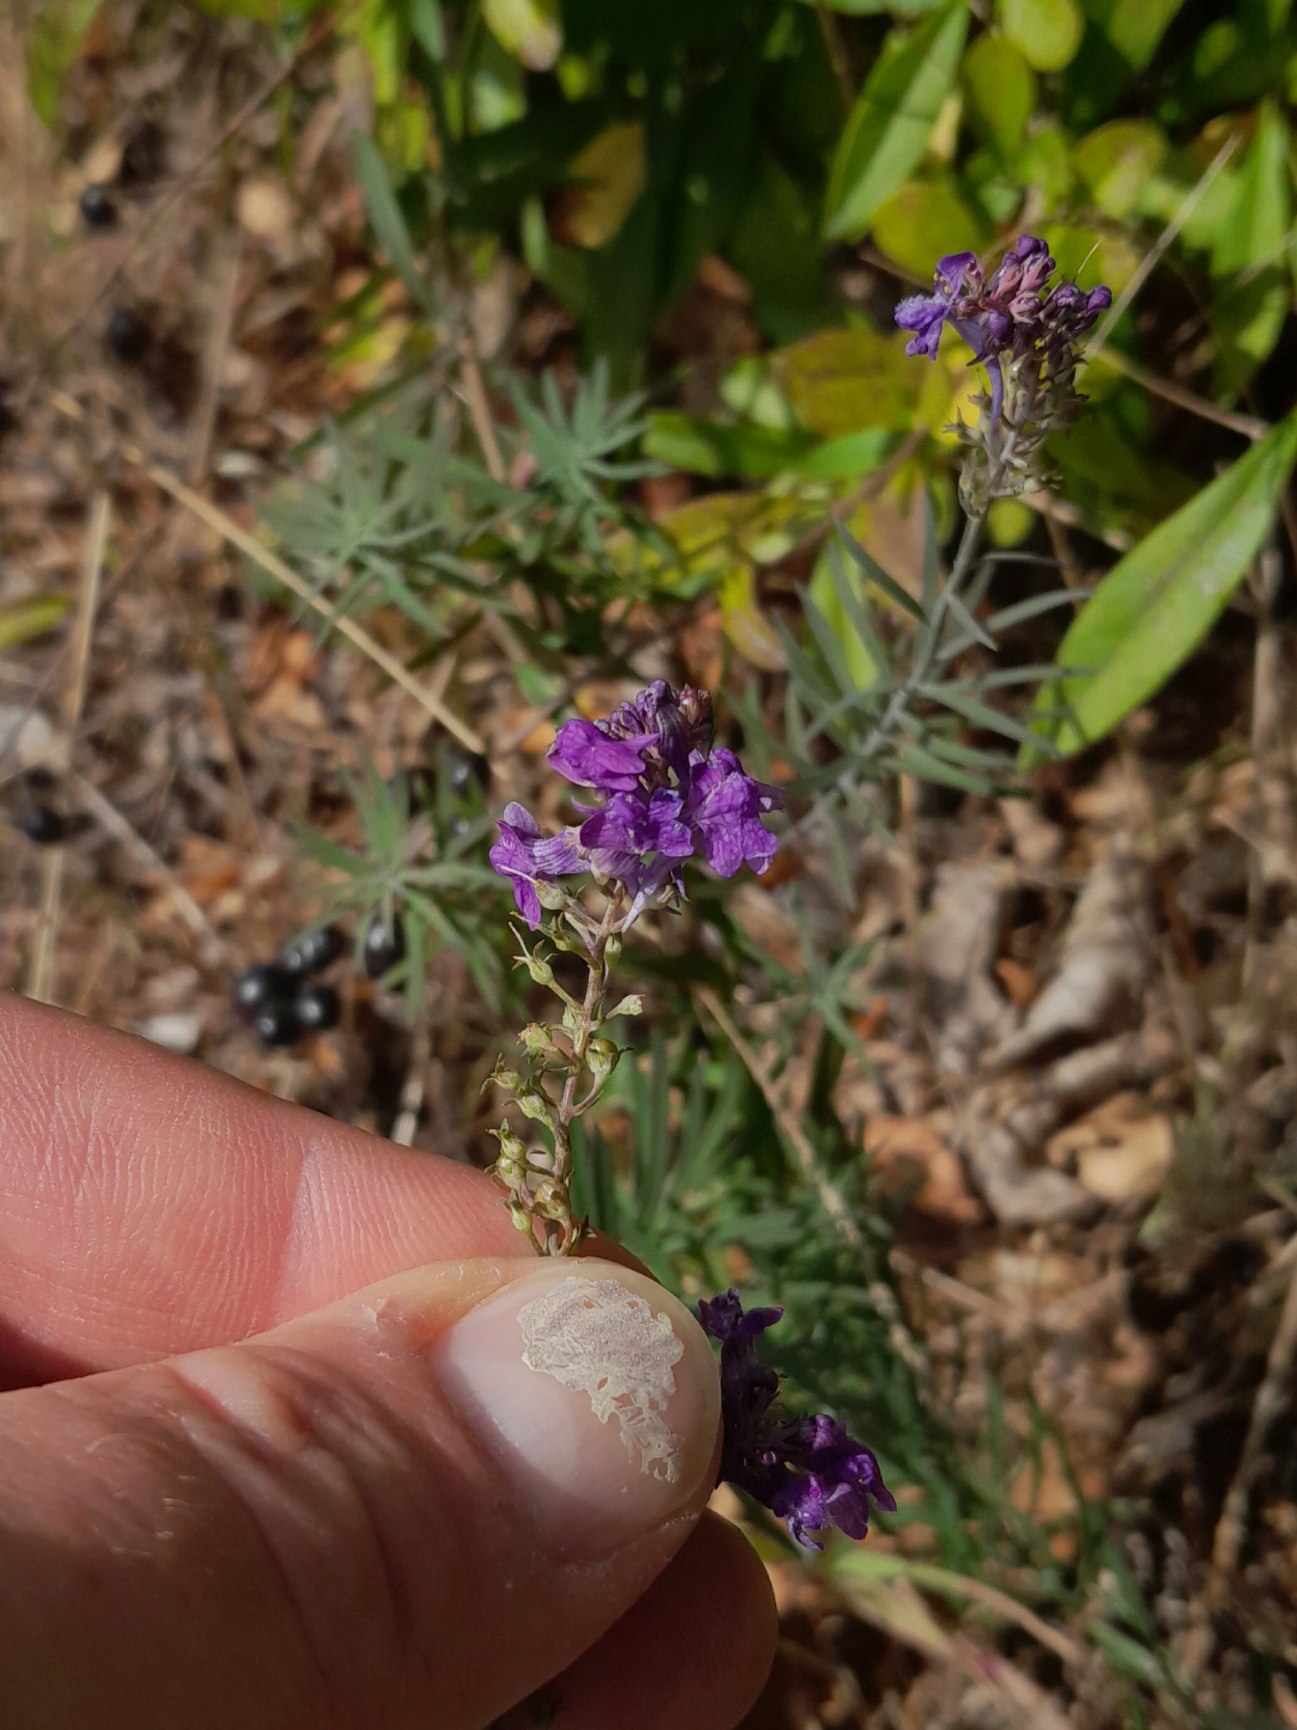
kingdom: Plantae
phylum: Tracheophyta
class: Magnoliopsida
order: Lamiales
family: Plantaginaceae
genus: Linaria
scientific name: Linaria purpurea
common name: Purpur-torskemund
